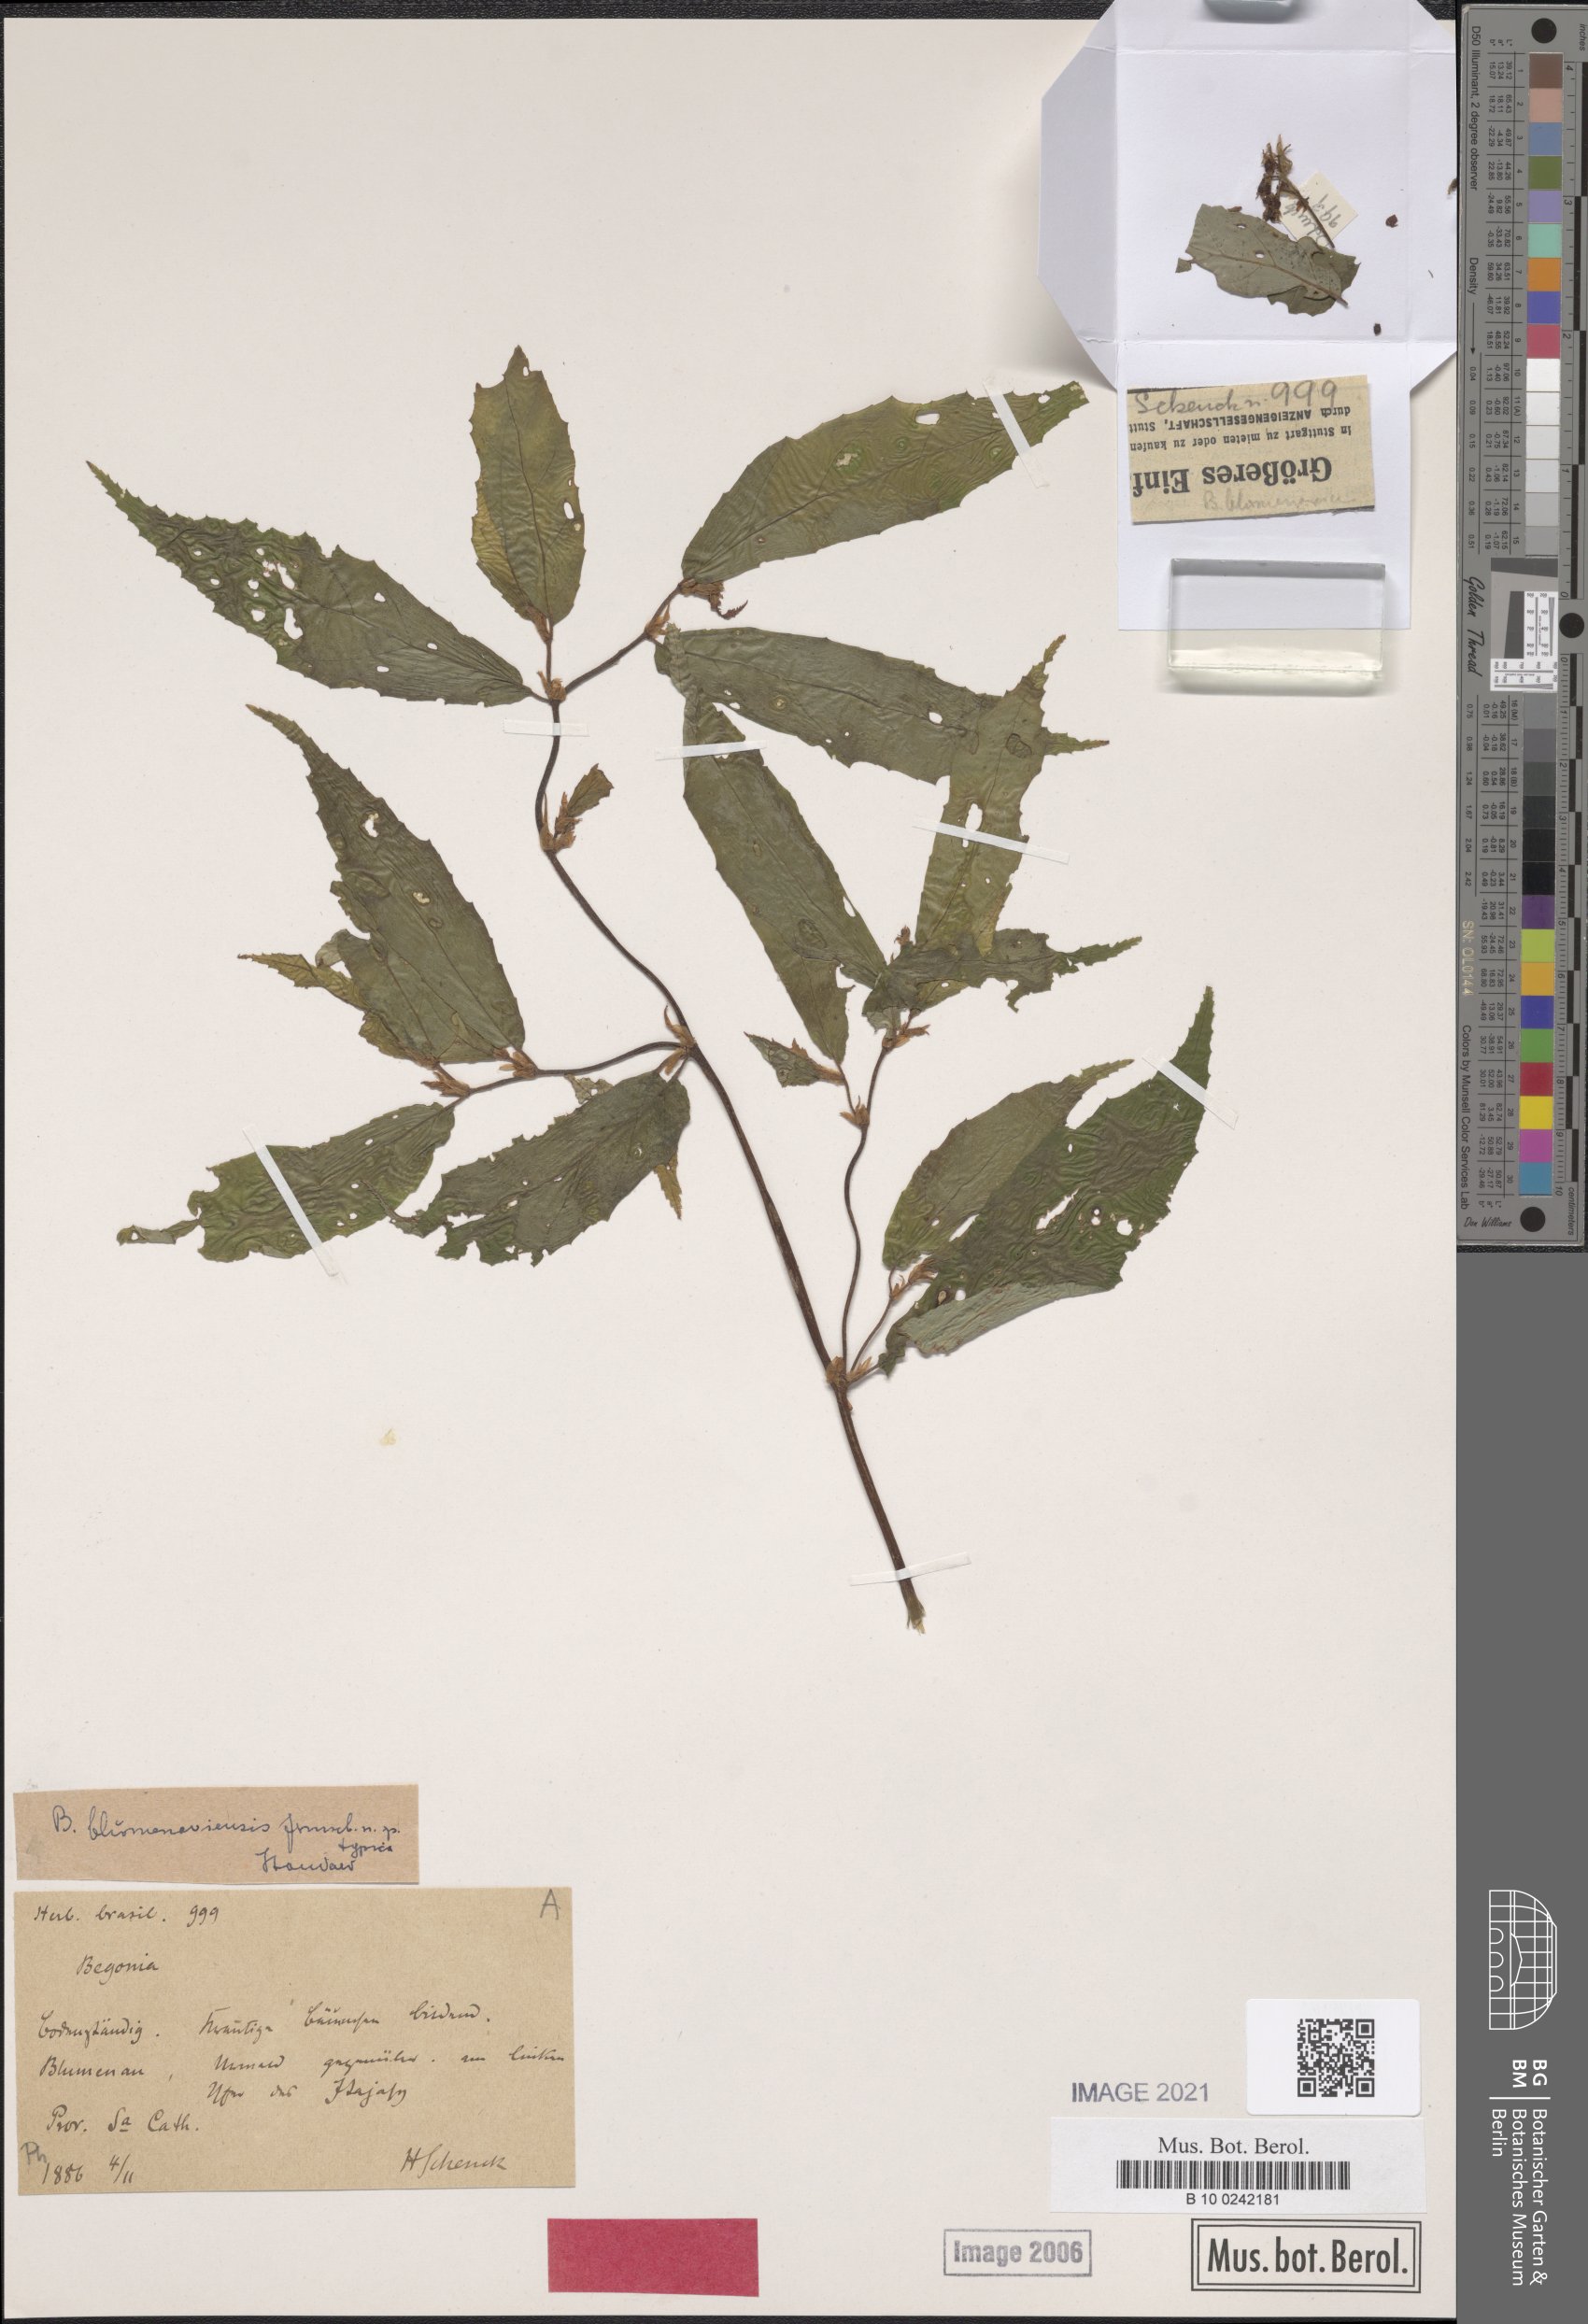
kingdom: Plantae
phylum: Tracheophyta
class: Magnoliopsida
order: Cucurbitales
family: Begoniaceae
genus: Begonia
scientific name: Begonia polyandra
